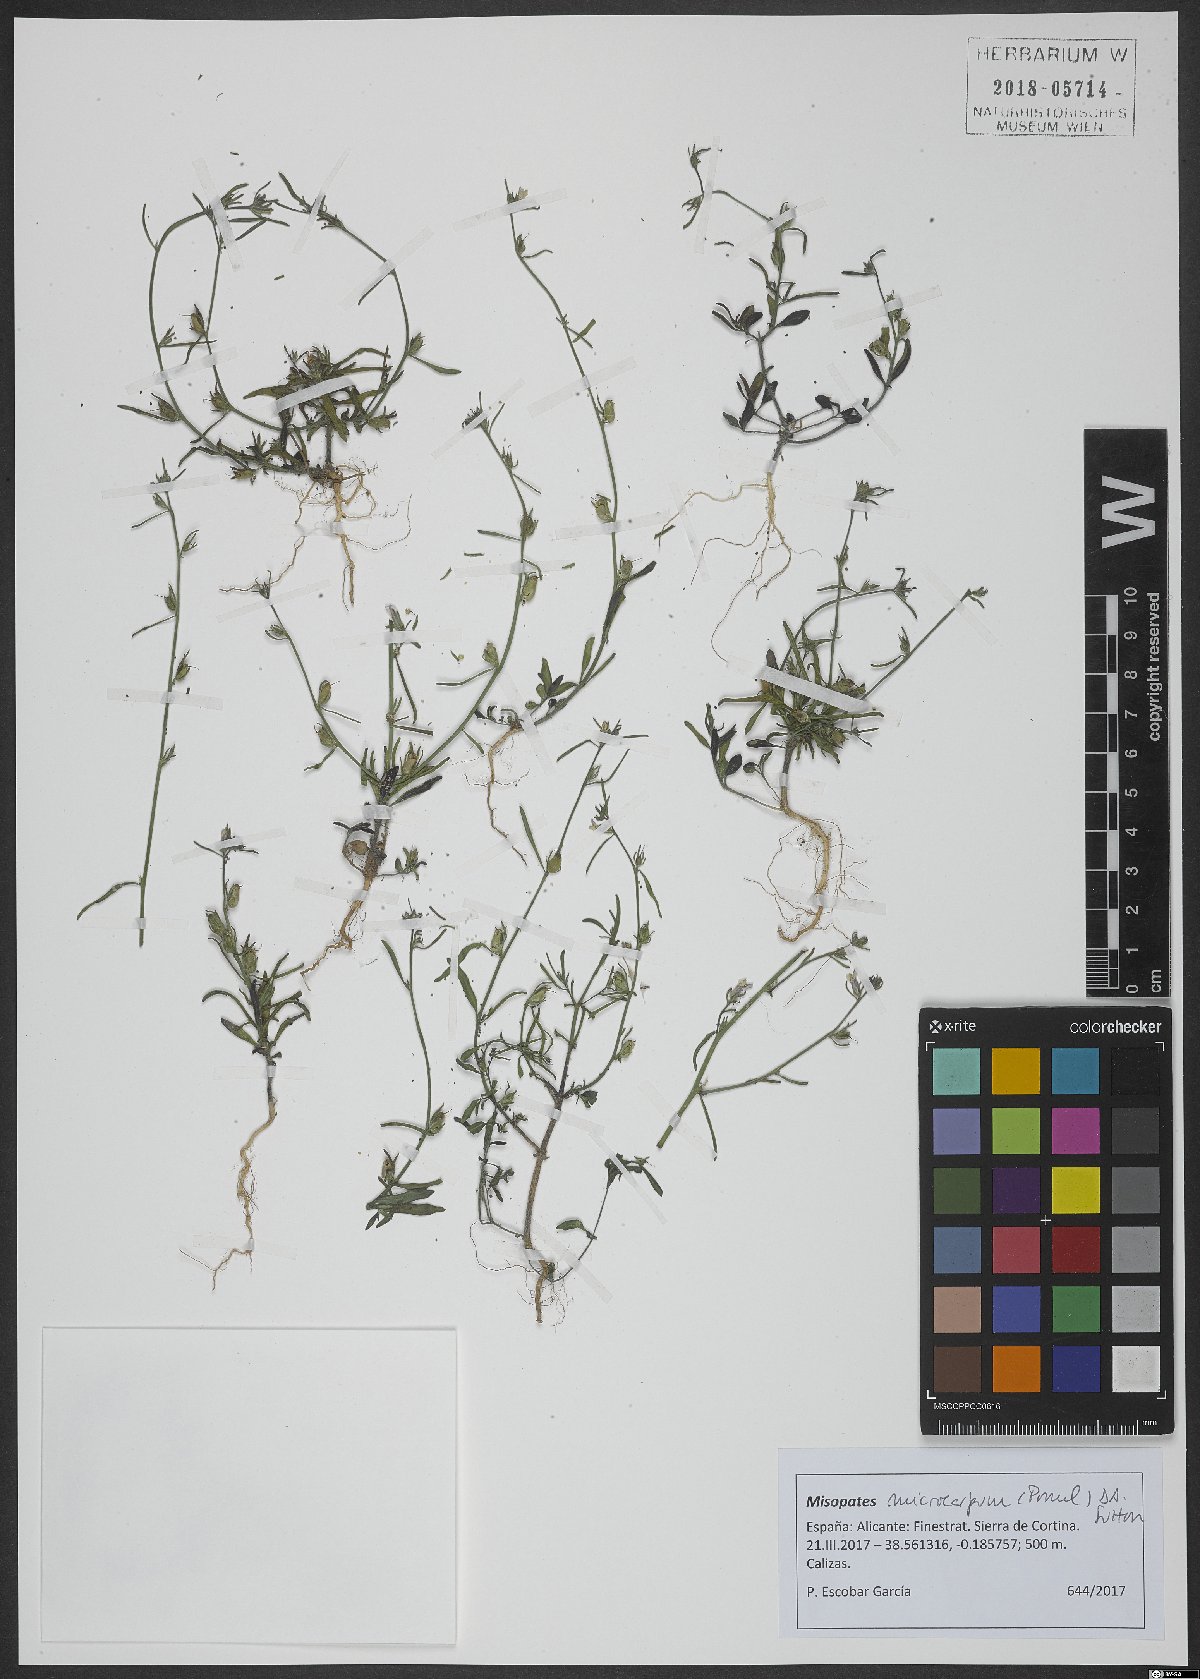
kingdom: Plantae
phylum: Tracheophyta
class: Magnoliopsida
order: Lamiales
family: Plantaginaceae
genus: Misopates
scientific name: Misopates microcarpum
